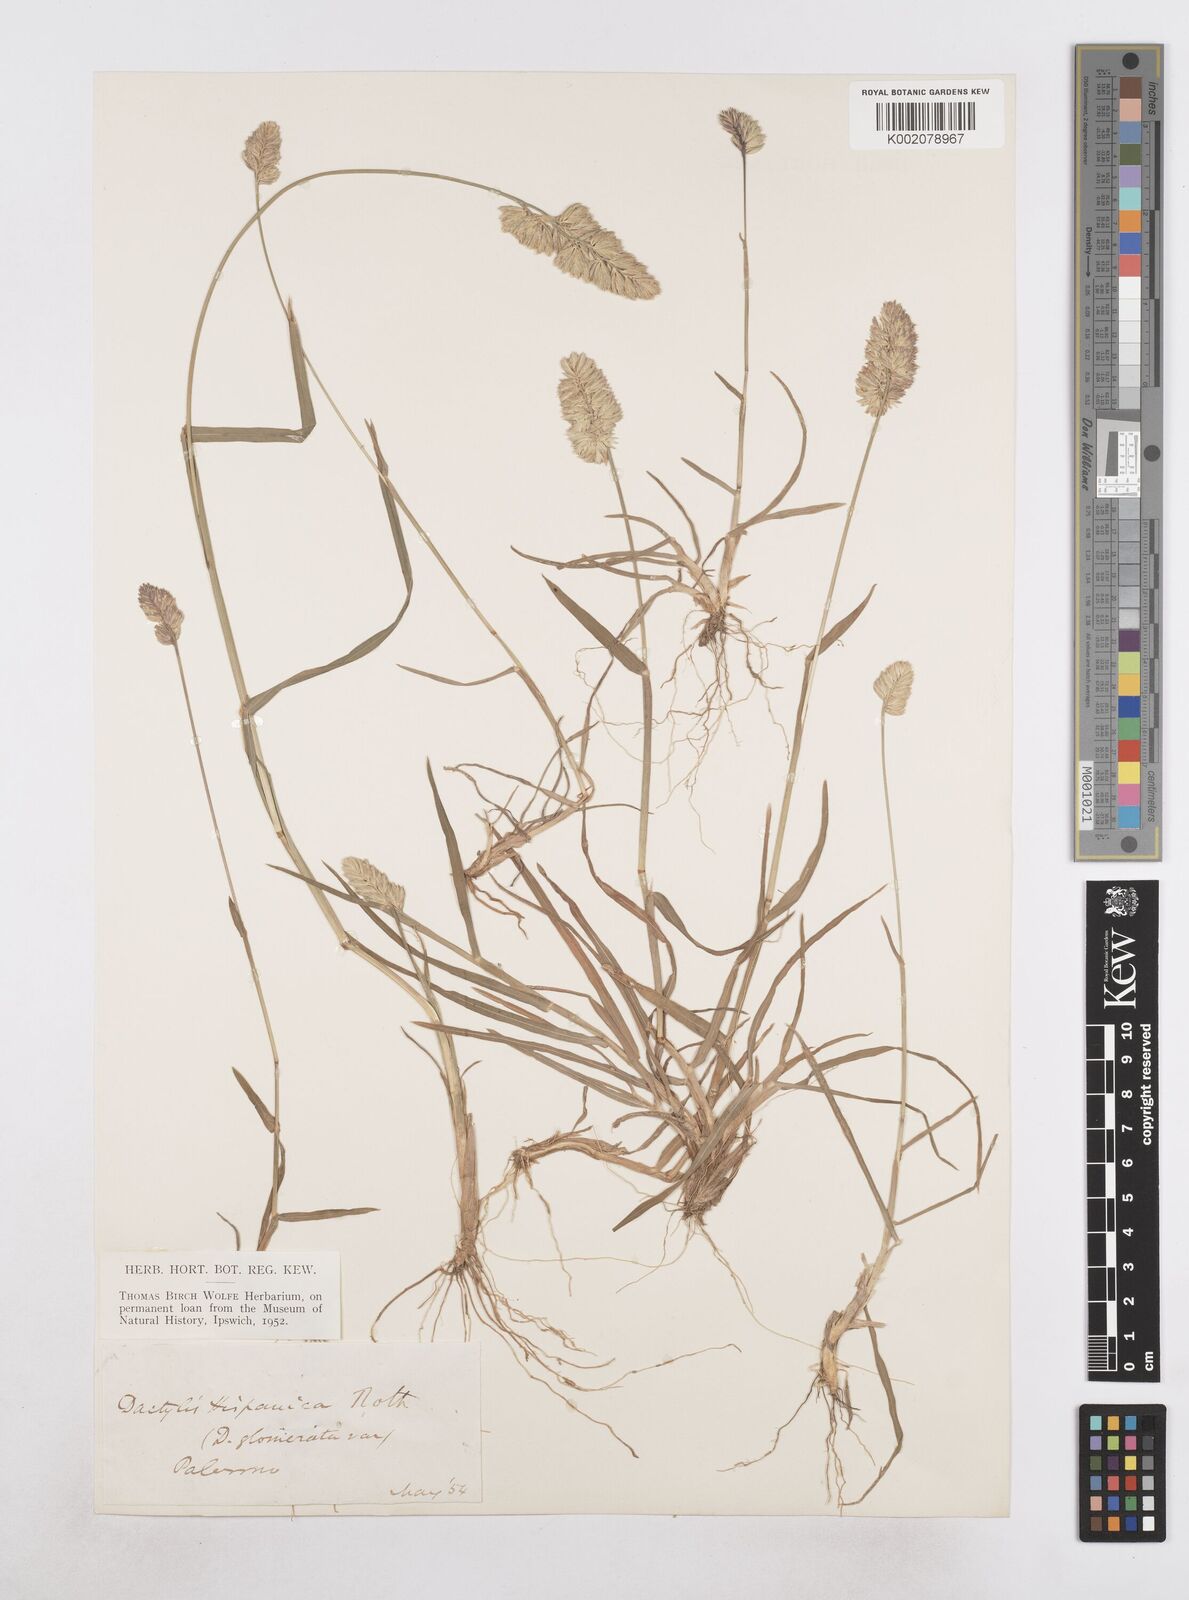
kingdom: Plantae
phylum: Tracheophyta
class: Liliopsida
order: Poales
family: Poaceae
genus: Dactylis
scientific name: Dactylis glomerata
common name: Orchardgrass
